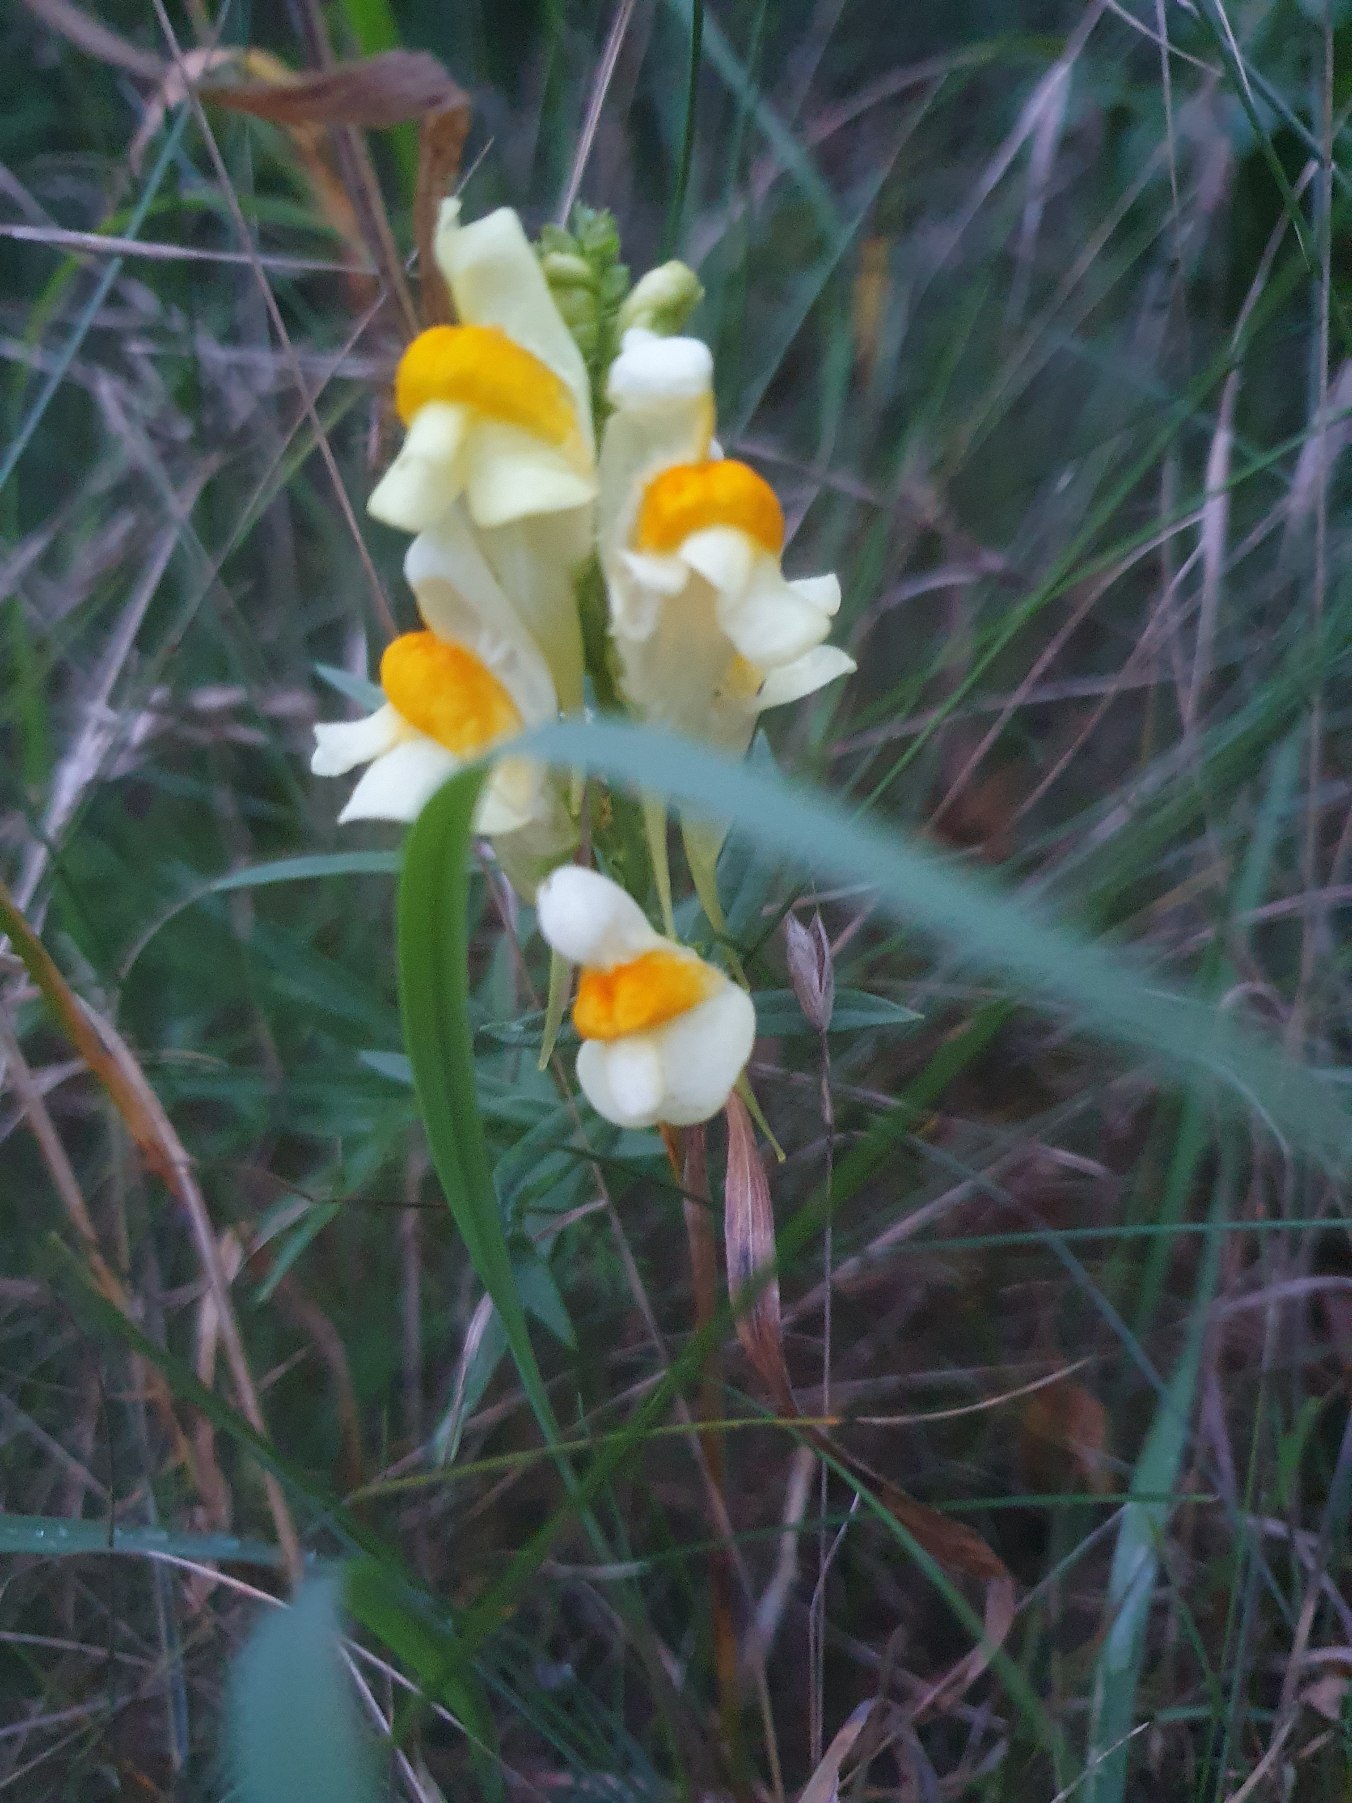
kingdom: Plantae
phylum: Tracheophyta
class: Magnoliopsida
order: Lamiales
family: Plantaginaceae
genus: Linaria
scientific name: Linaria vulgaris
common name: Almindelig torskemund
